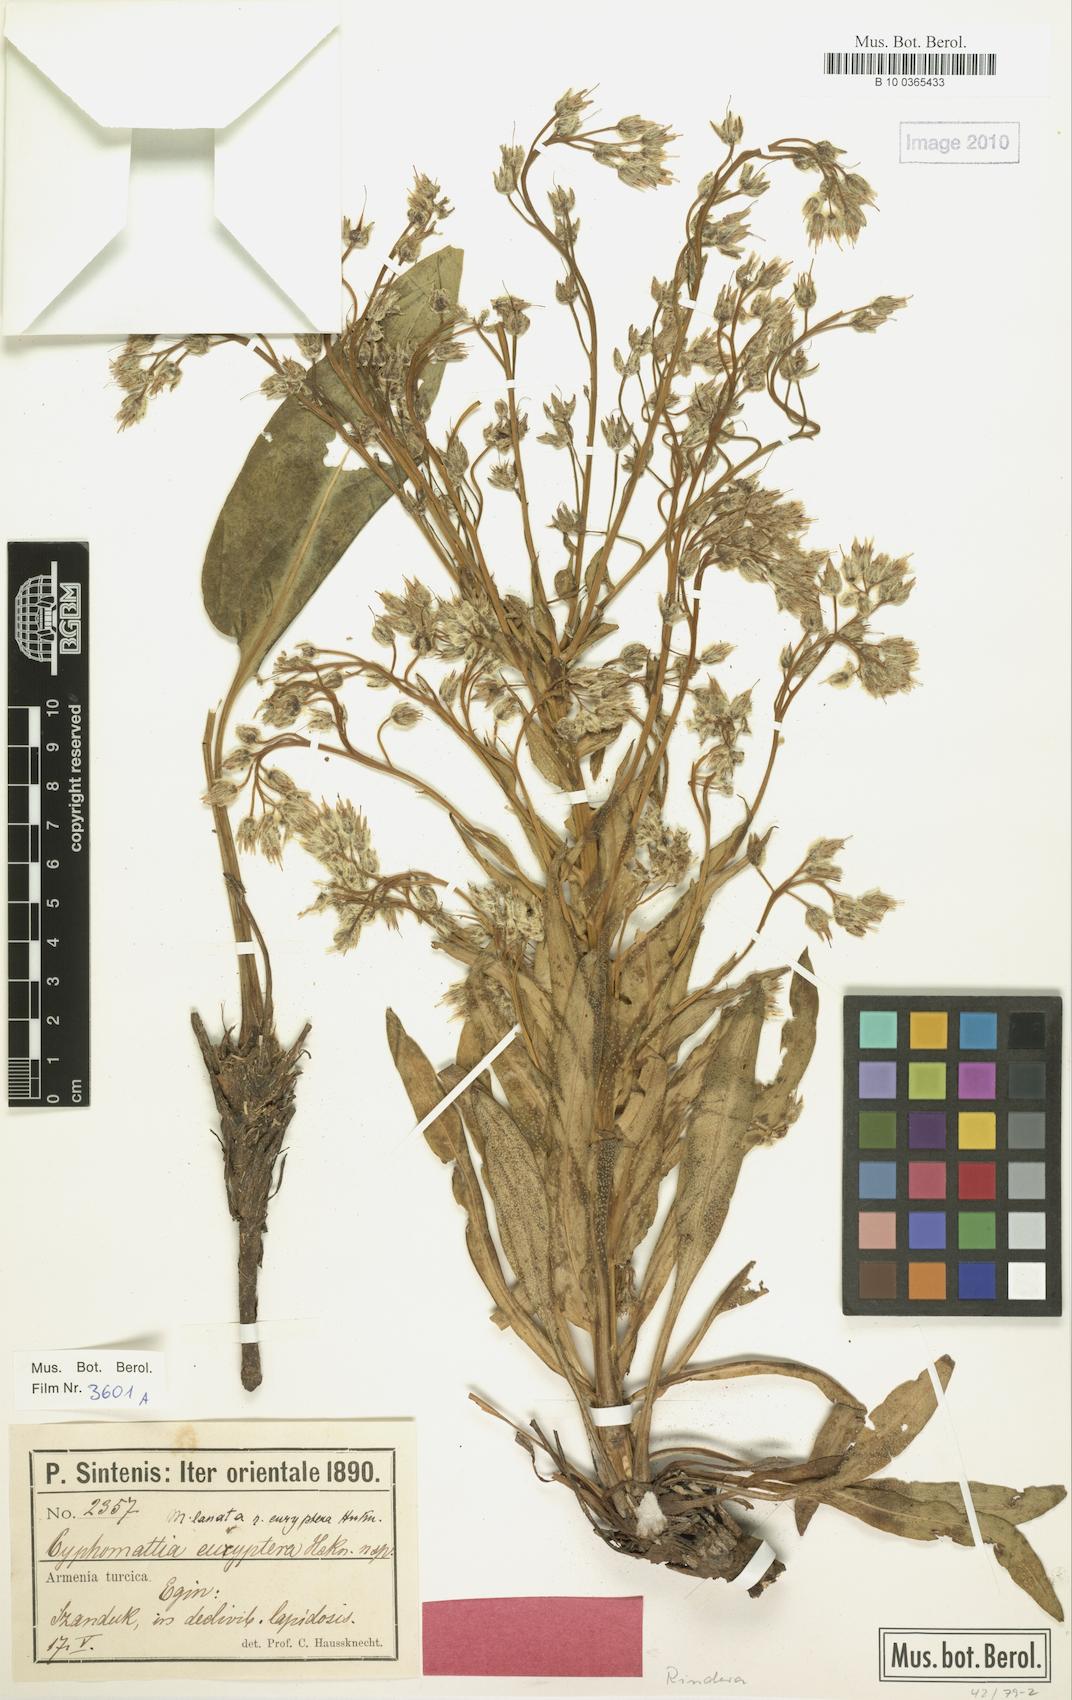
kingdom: Plantae
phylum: Tracheophyta
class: Magnoliopsida
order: Boraginales
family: Boraginaceae
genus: Rindera
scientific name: Rindera lanata
